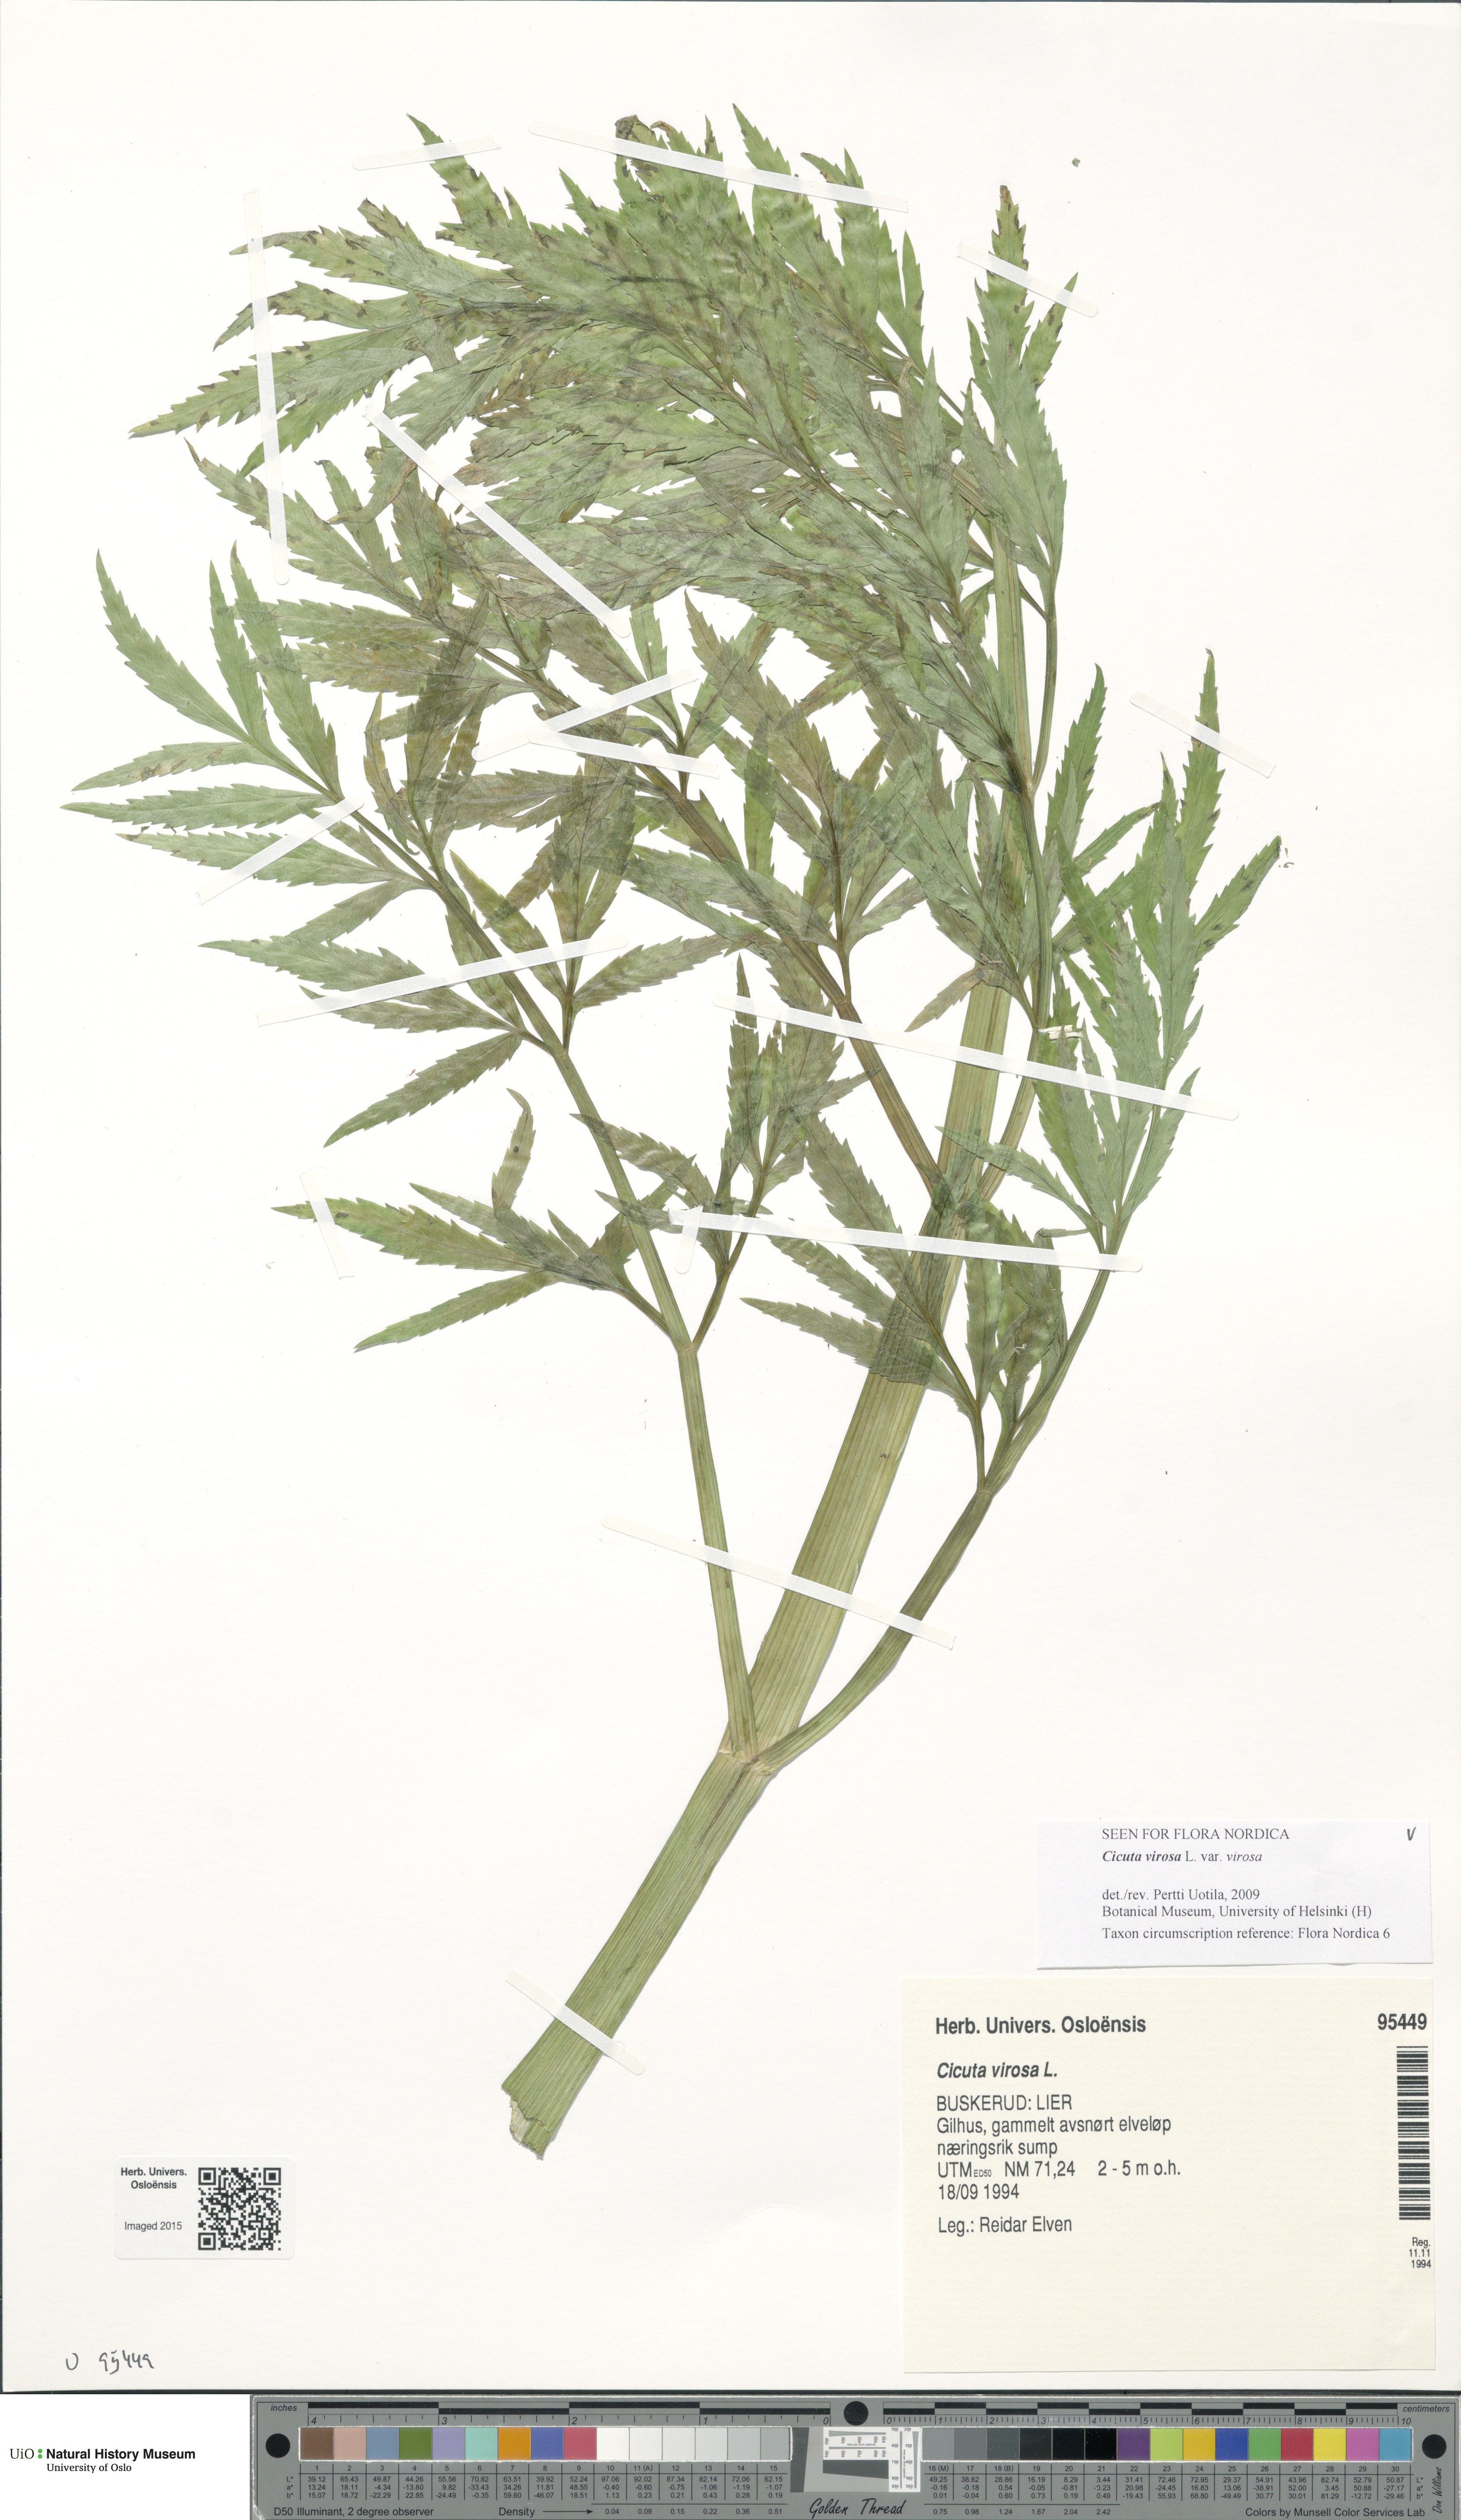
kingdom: Plantae
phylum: Tracheophyta
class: Magnoliopsida
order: Apiales
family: Apiaceae
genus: Cicuta
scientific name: Cicuta virosa
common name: Cowbane
